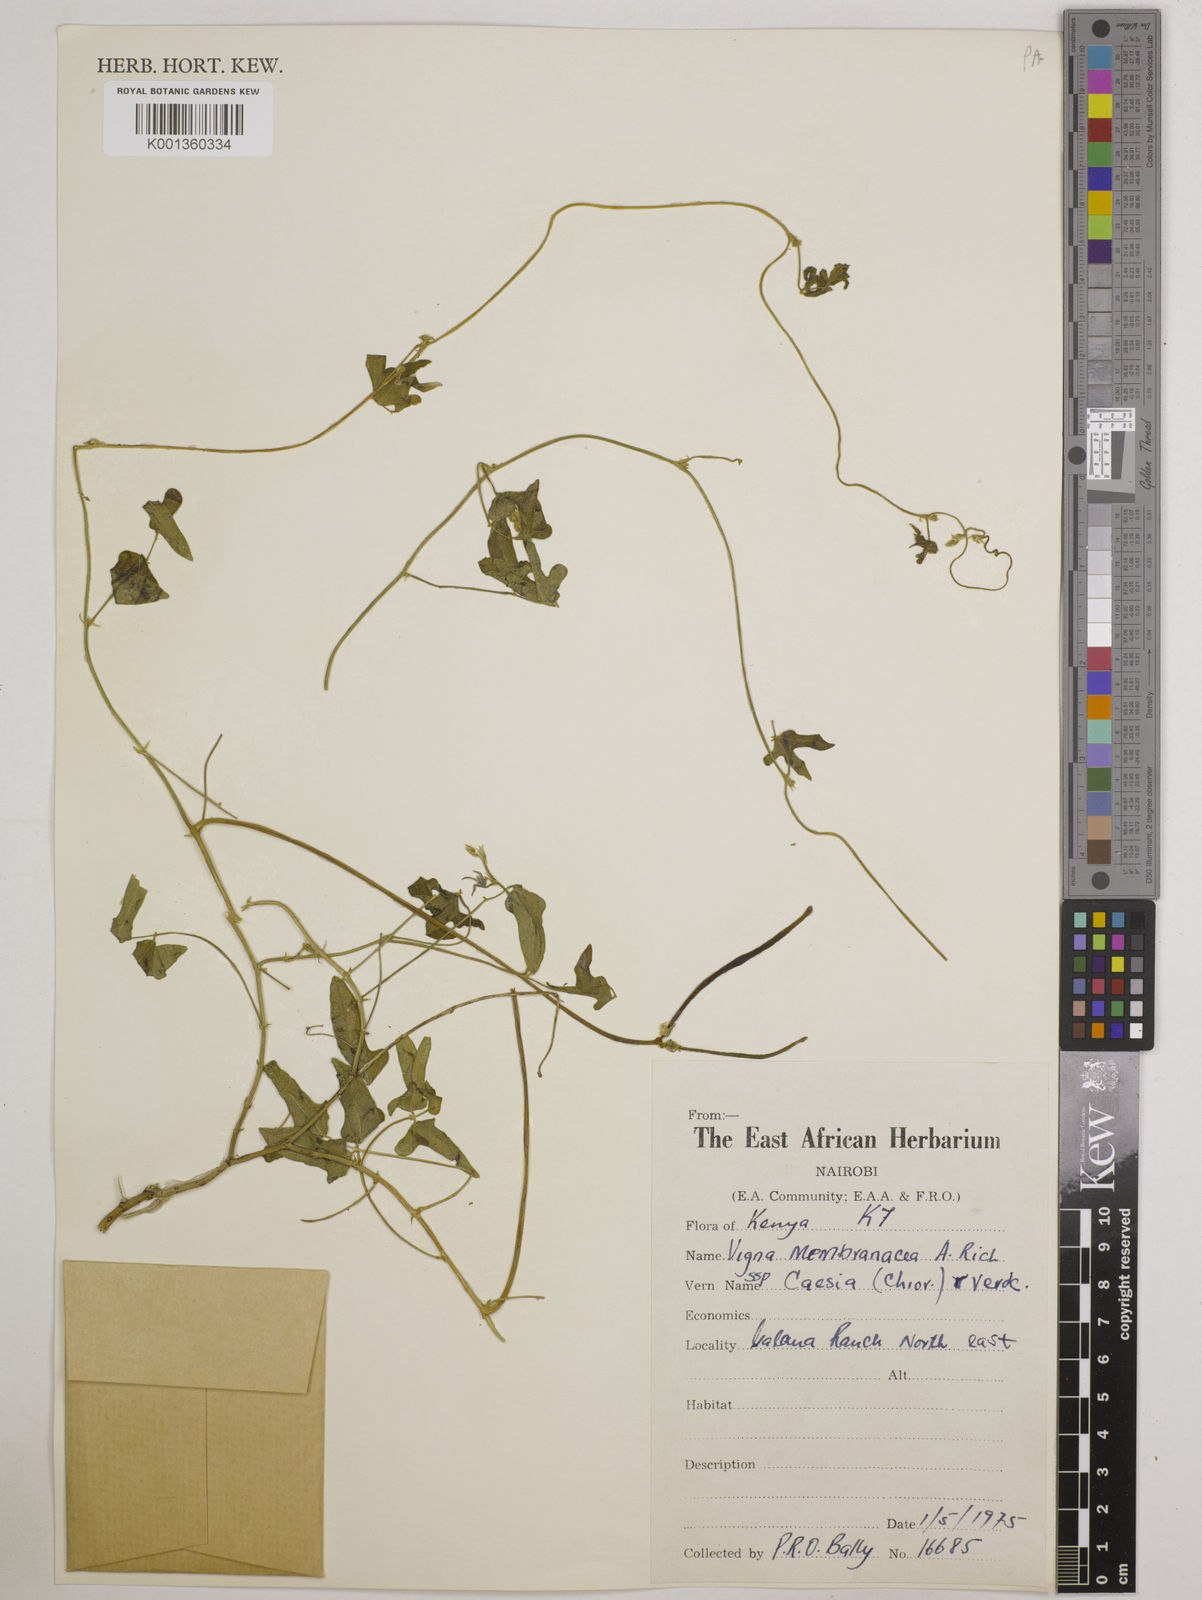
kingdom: Plantae
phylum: Tracheophyta
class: Magnoliopsida
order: Fabales
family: Fabaceae
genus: Vigna
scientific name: Vigna
